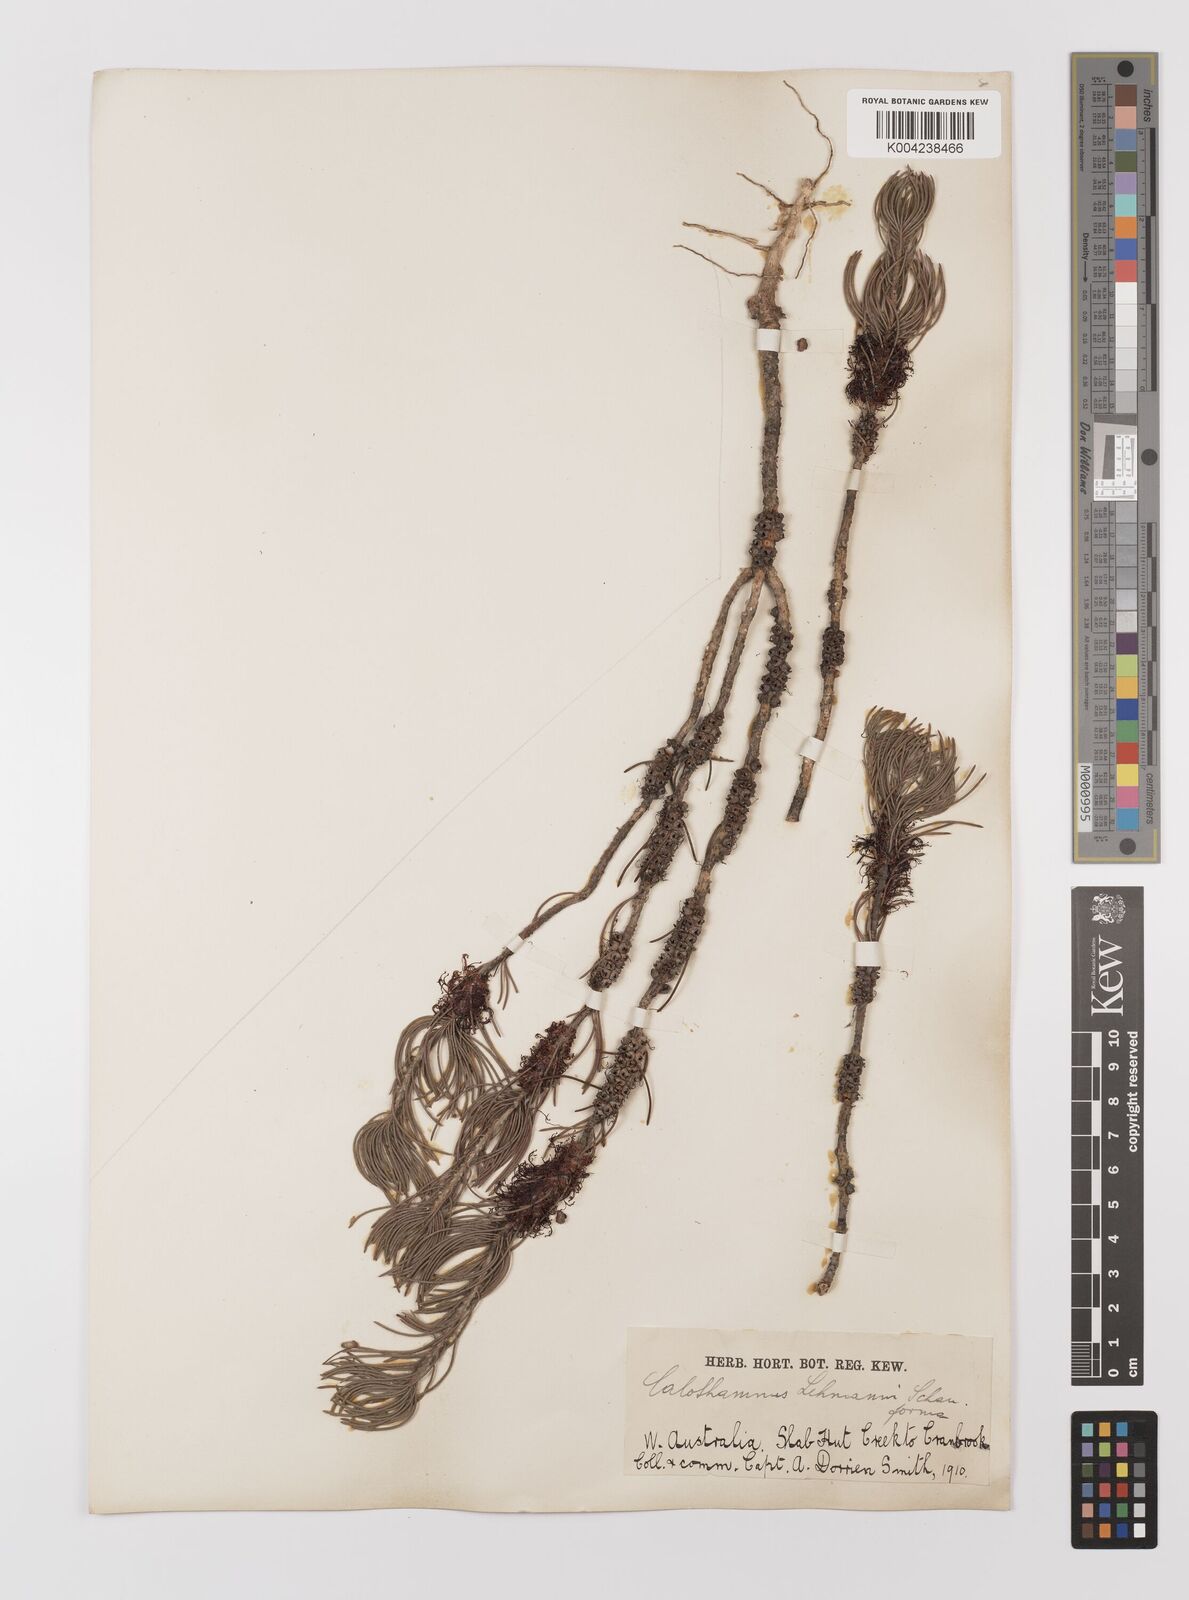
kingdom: Plantae
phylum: Tracheophyta
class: Magnoliopsida
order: Myrtales
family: Myrtaceae
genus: Melaleuca
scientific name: Melaleuca johannis-lehmannii
